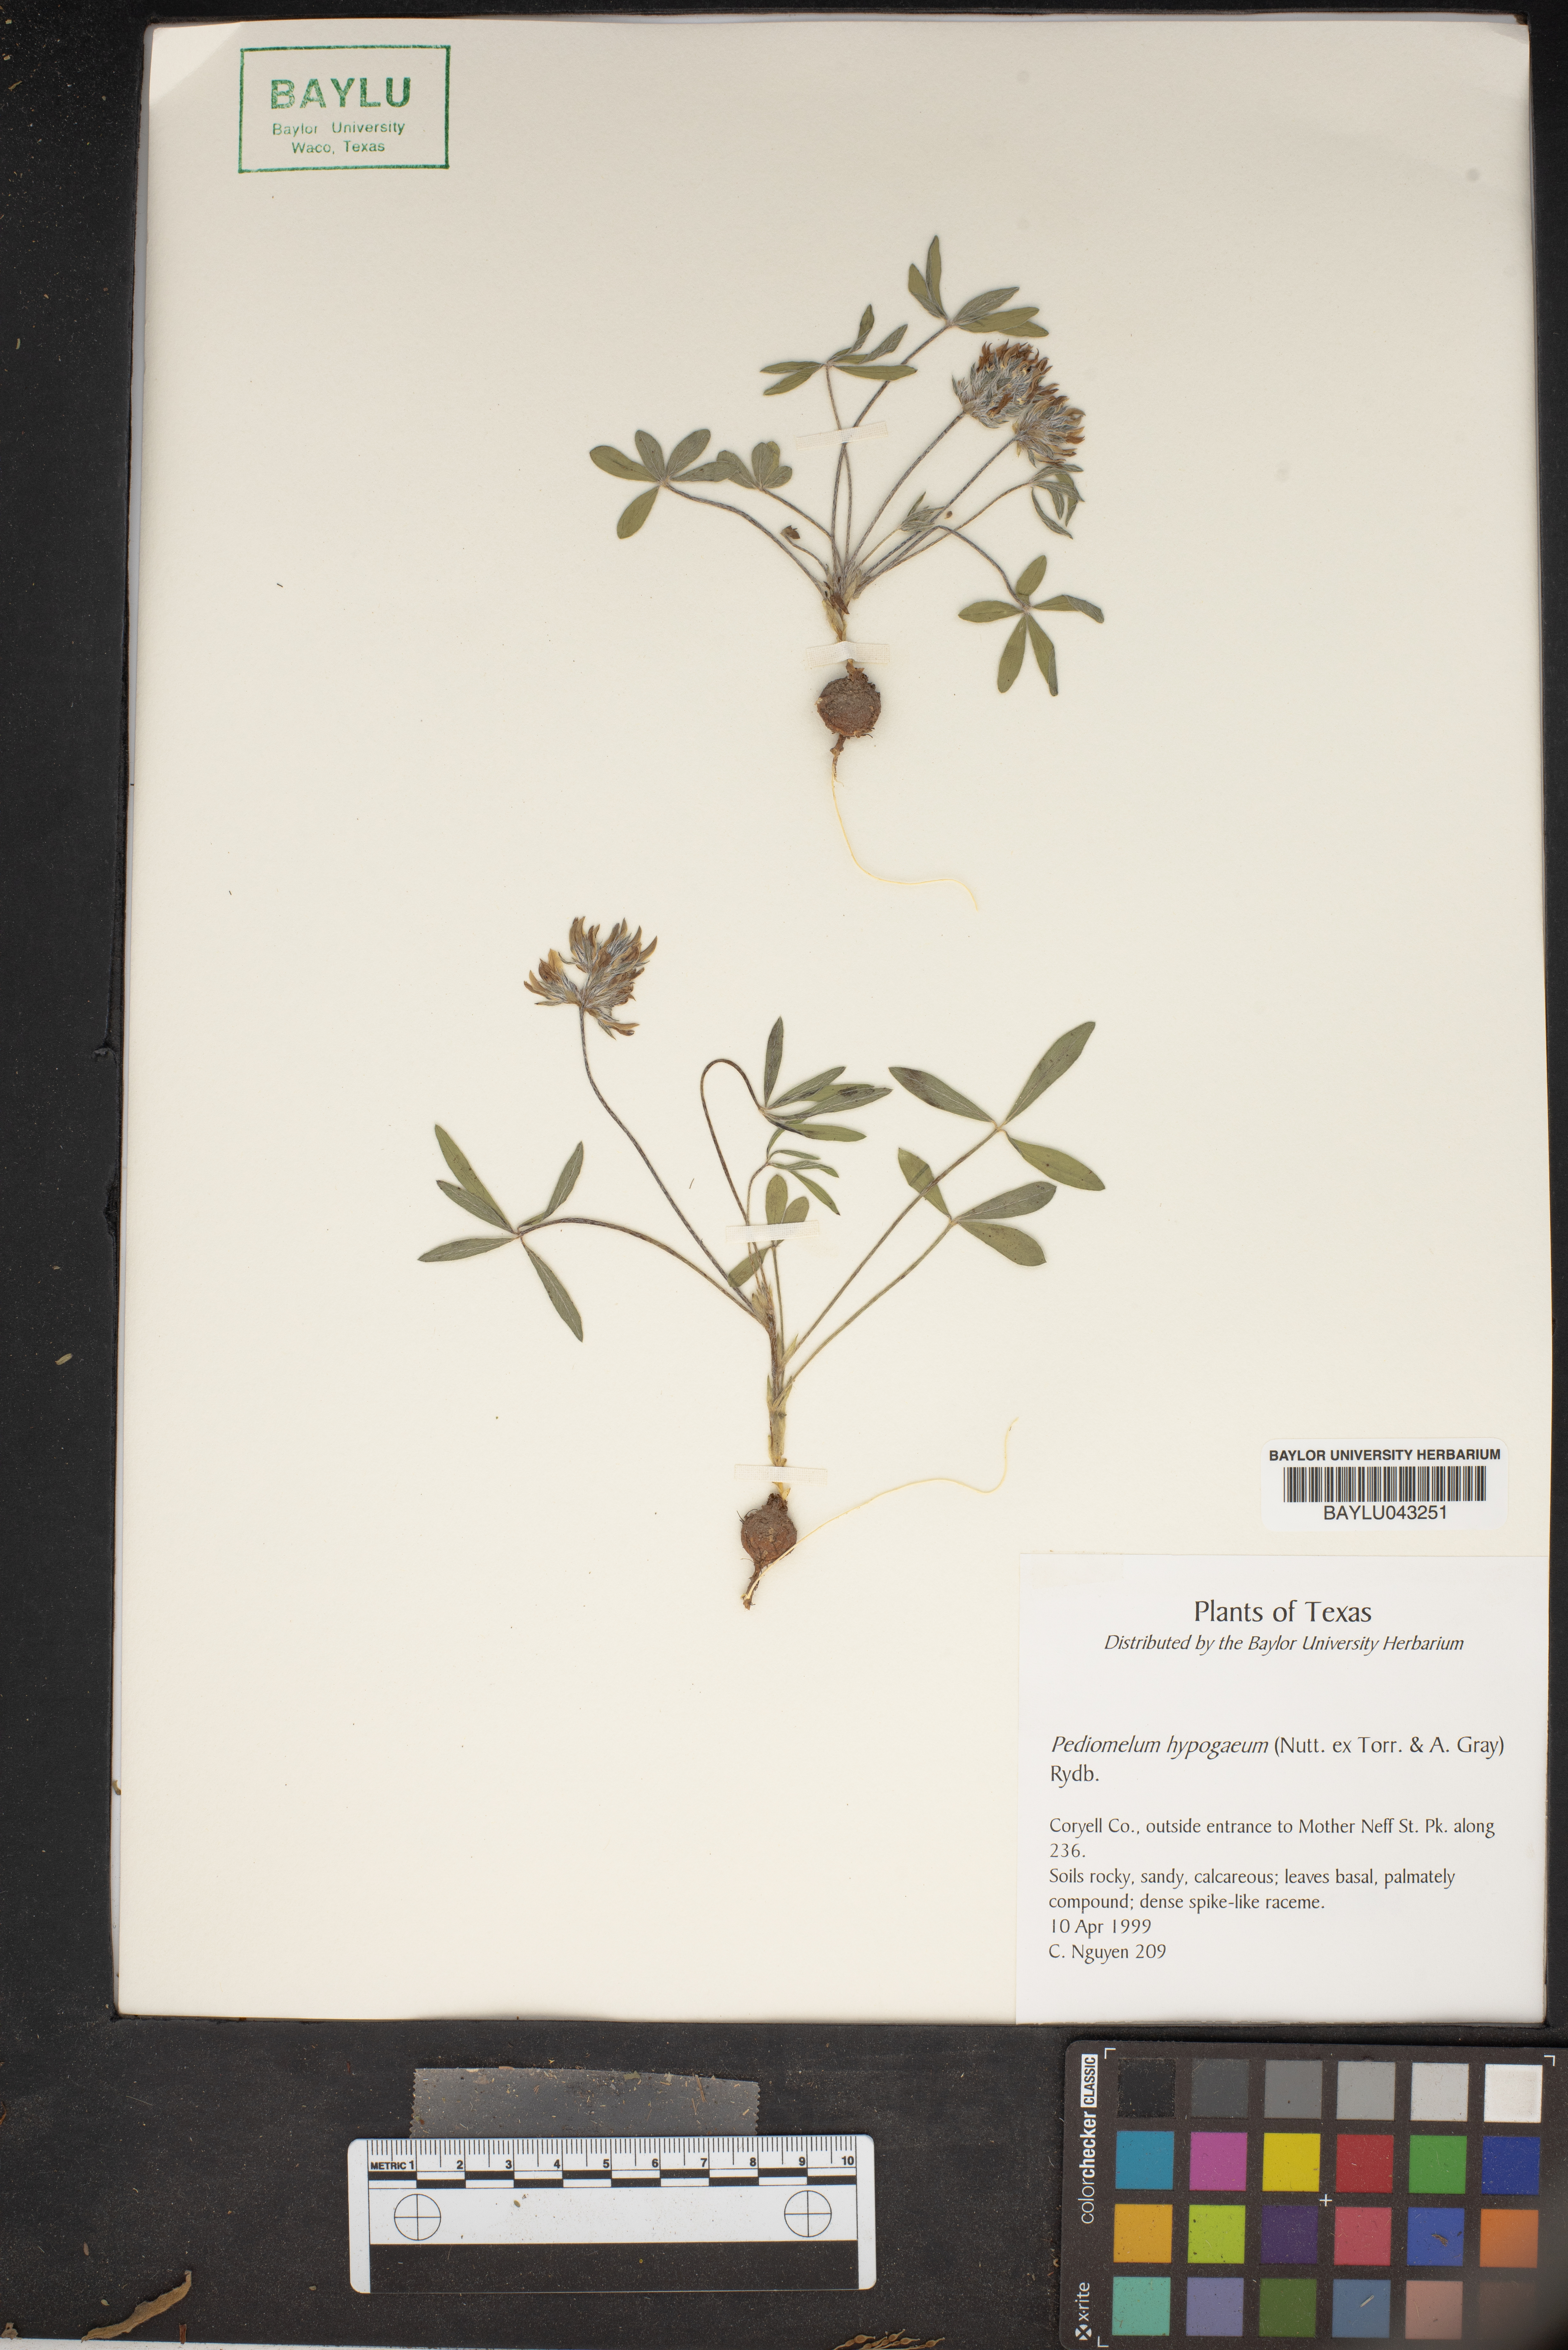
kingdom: Plantae
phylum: Tracheophyta
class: Magnoliopsida
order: Fabales
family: Fabaceae
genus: Pediomelum
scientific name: Pediomelum hypogaeum
